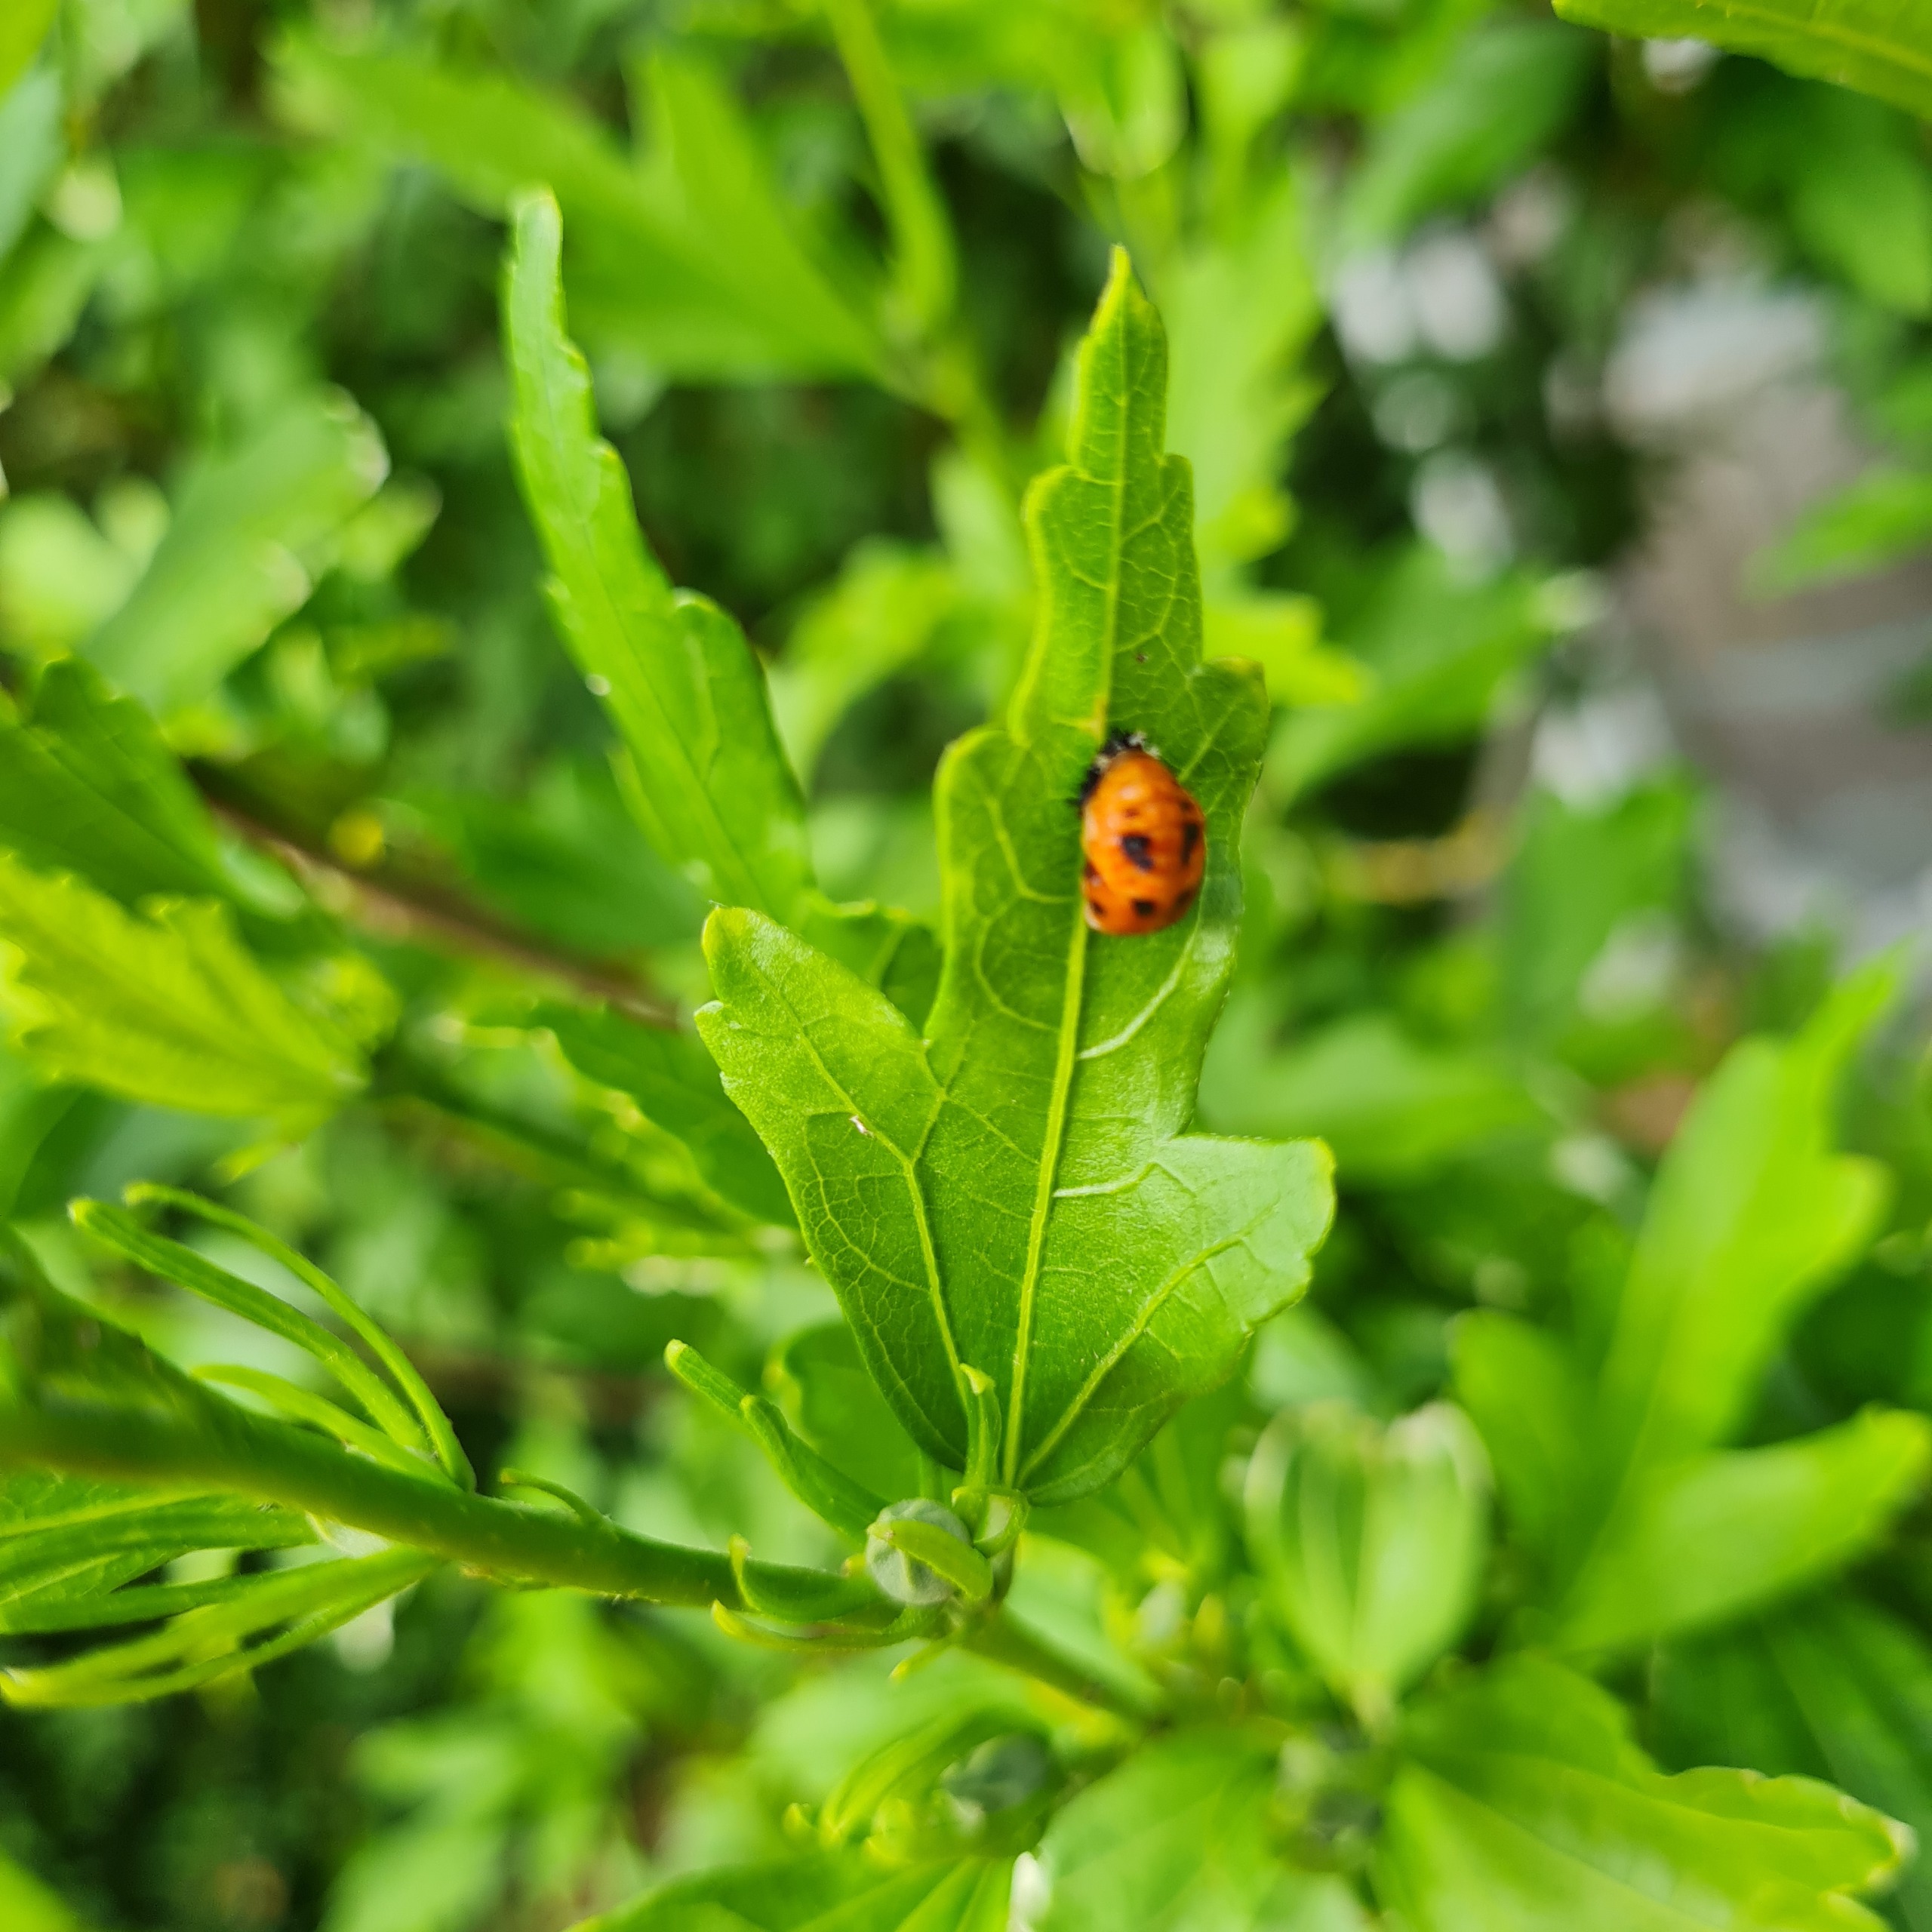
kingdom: Animalia
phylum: Arthropoda
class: Insecta
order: Coleoptera
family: Coccinellidae
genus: Harmonia
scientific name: Harmonia axyridis
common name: Harlekinmariehøne
